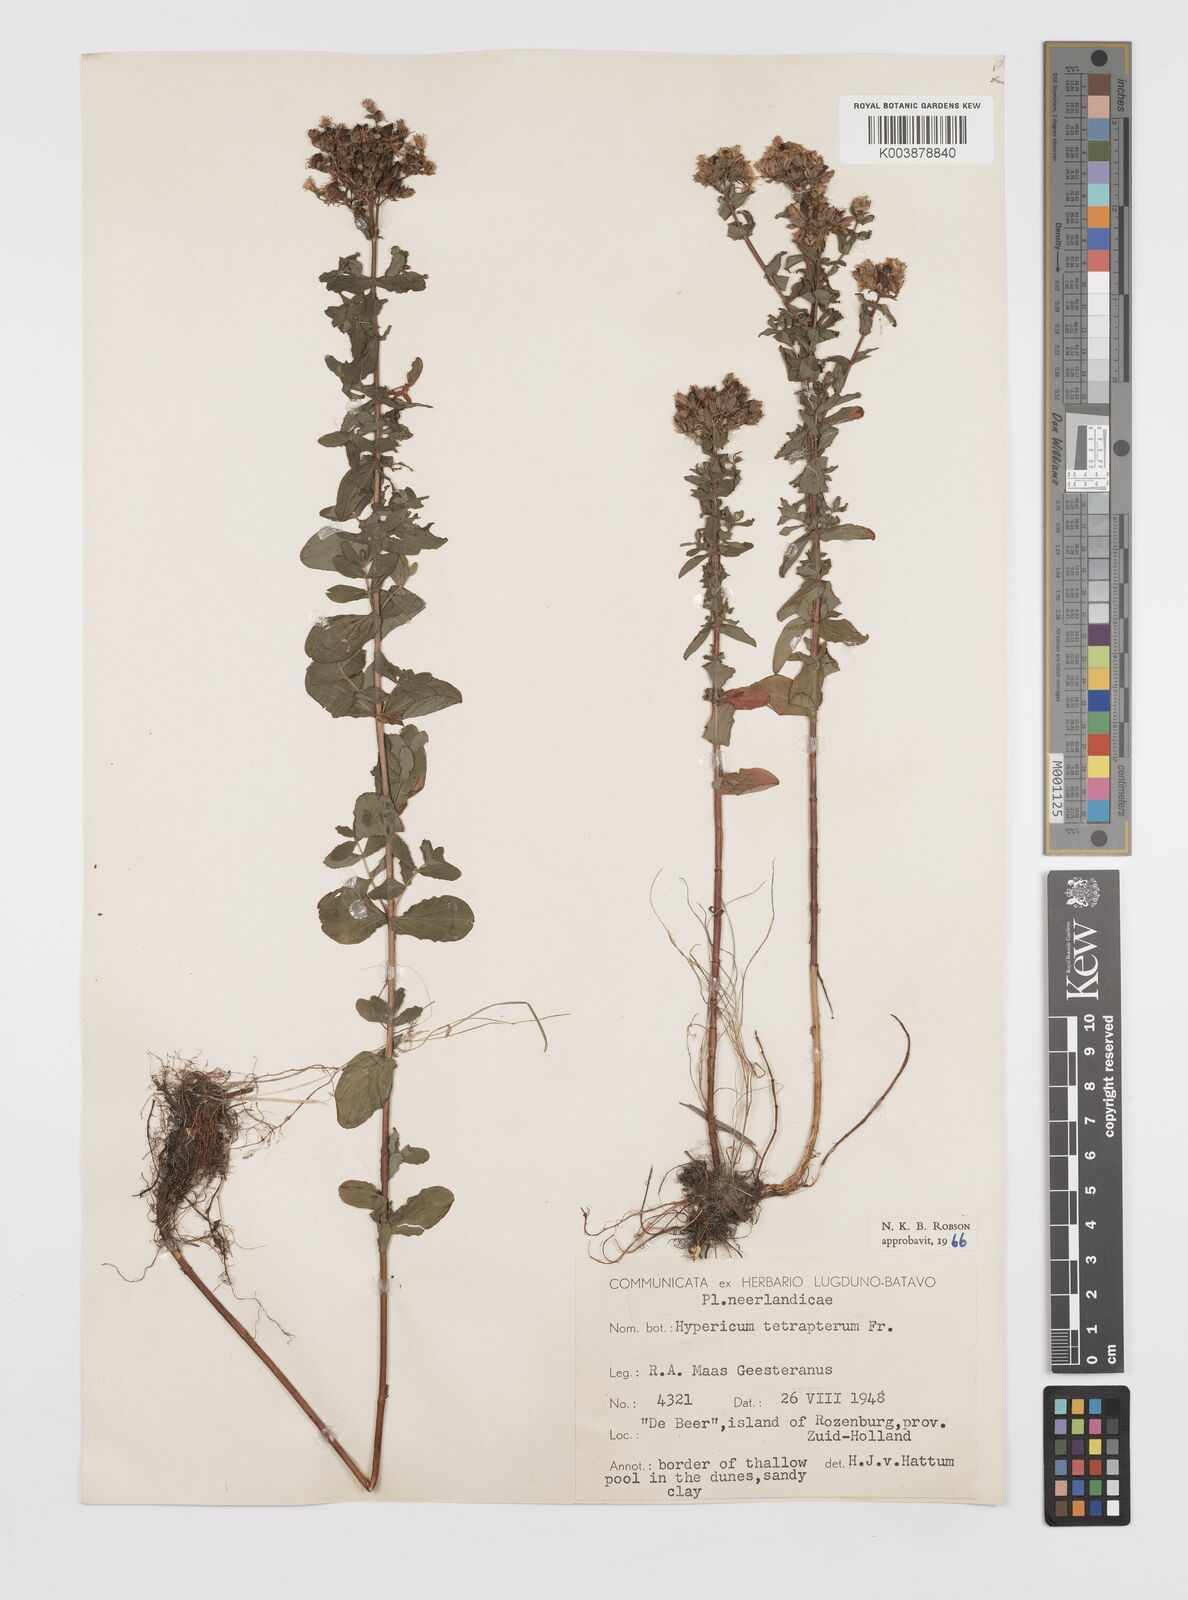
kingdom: Plantae
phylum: Tracheophyta
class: Magnoliopsida
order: Malpighiales
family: Hypericaceae
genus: Hypericum
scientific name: Hypericum tetrapterum
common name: Square-stalked st. john's-wort
